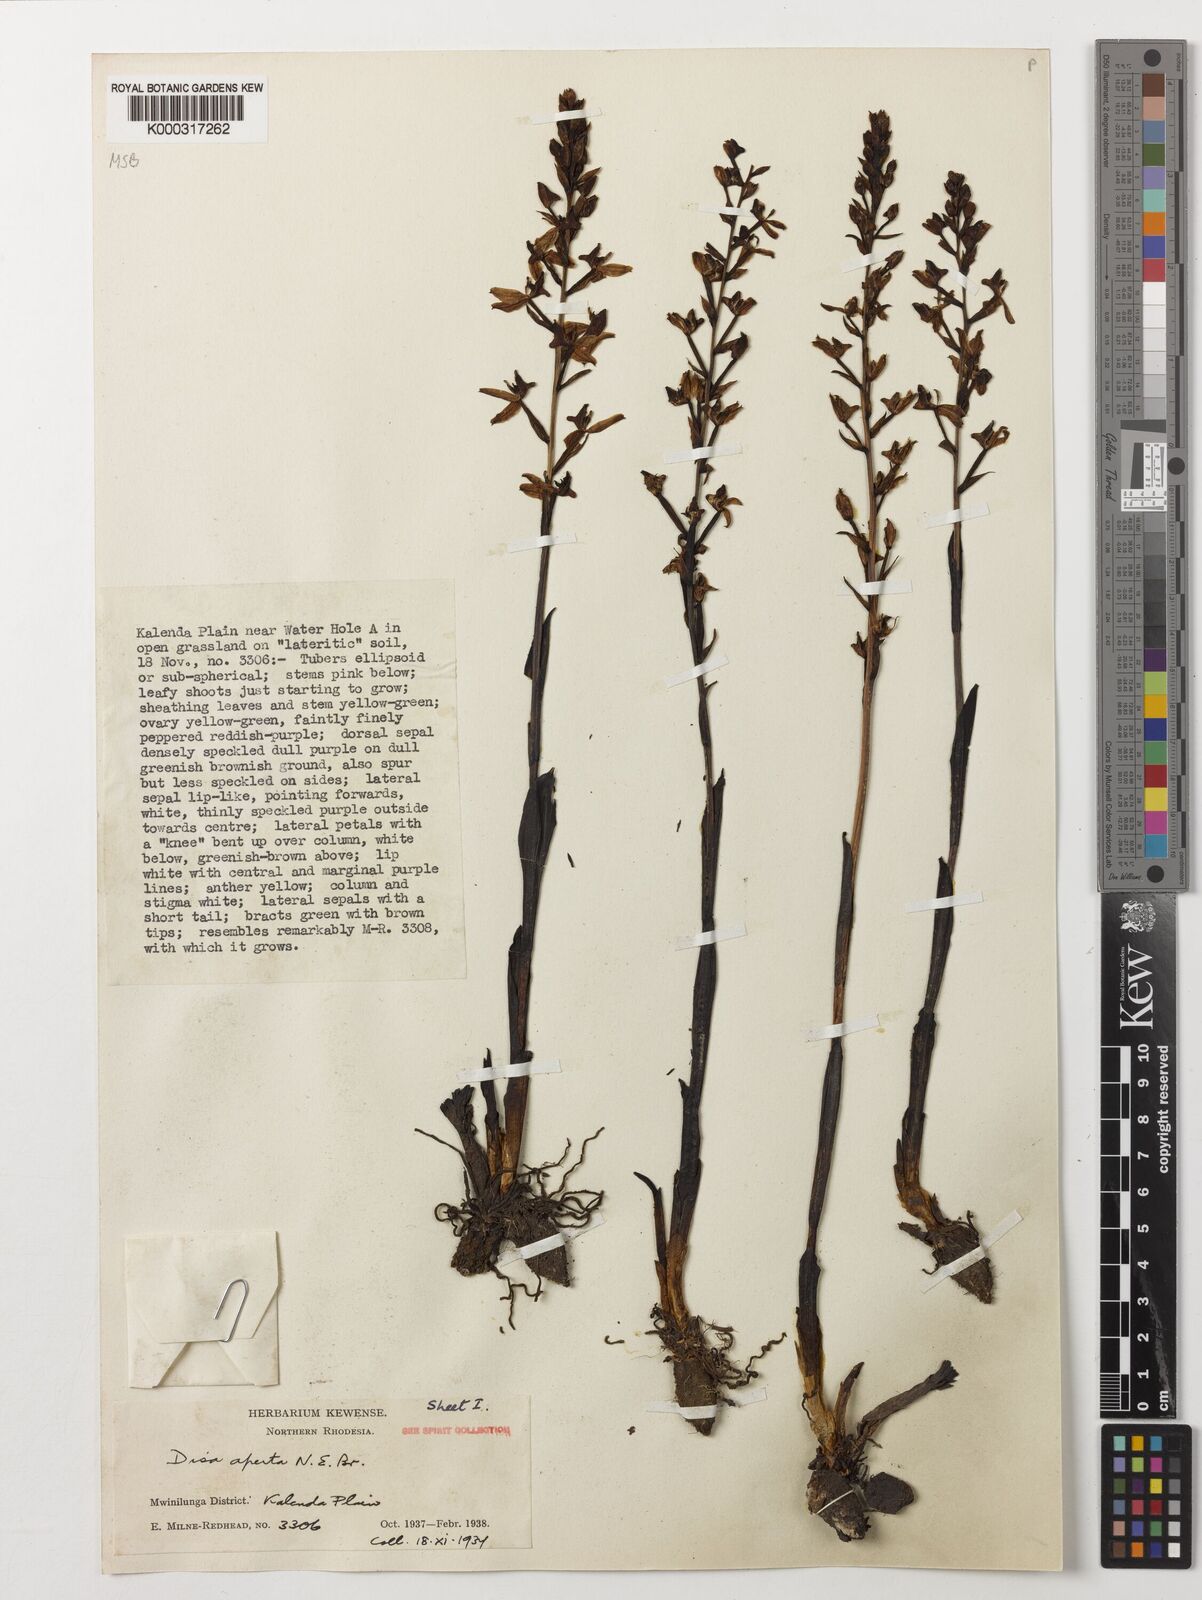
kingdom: Plantae
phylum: Tracheophyta
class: Liliopsida
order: Asparagales
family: Orchidaceae
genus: Disa
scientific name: Disa aperta
